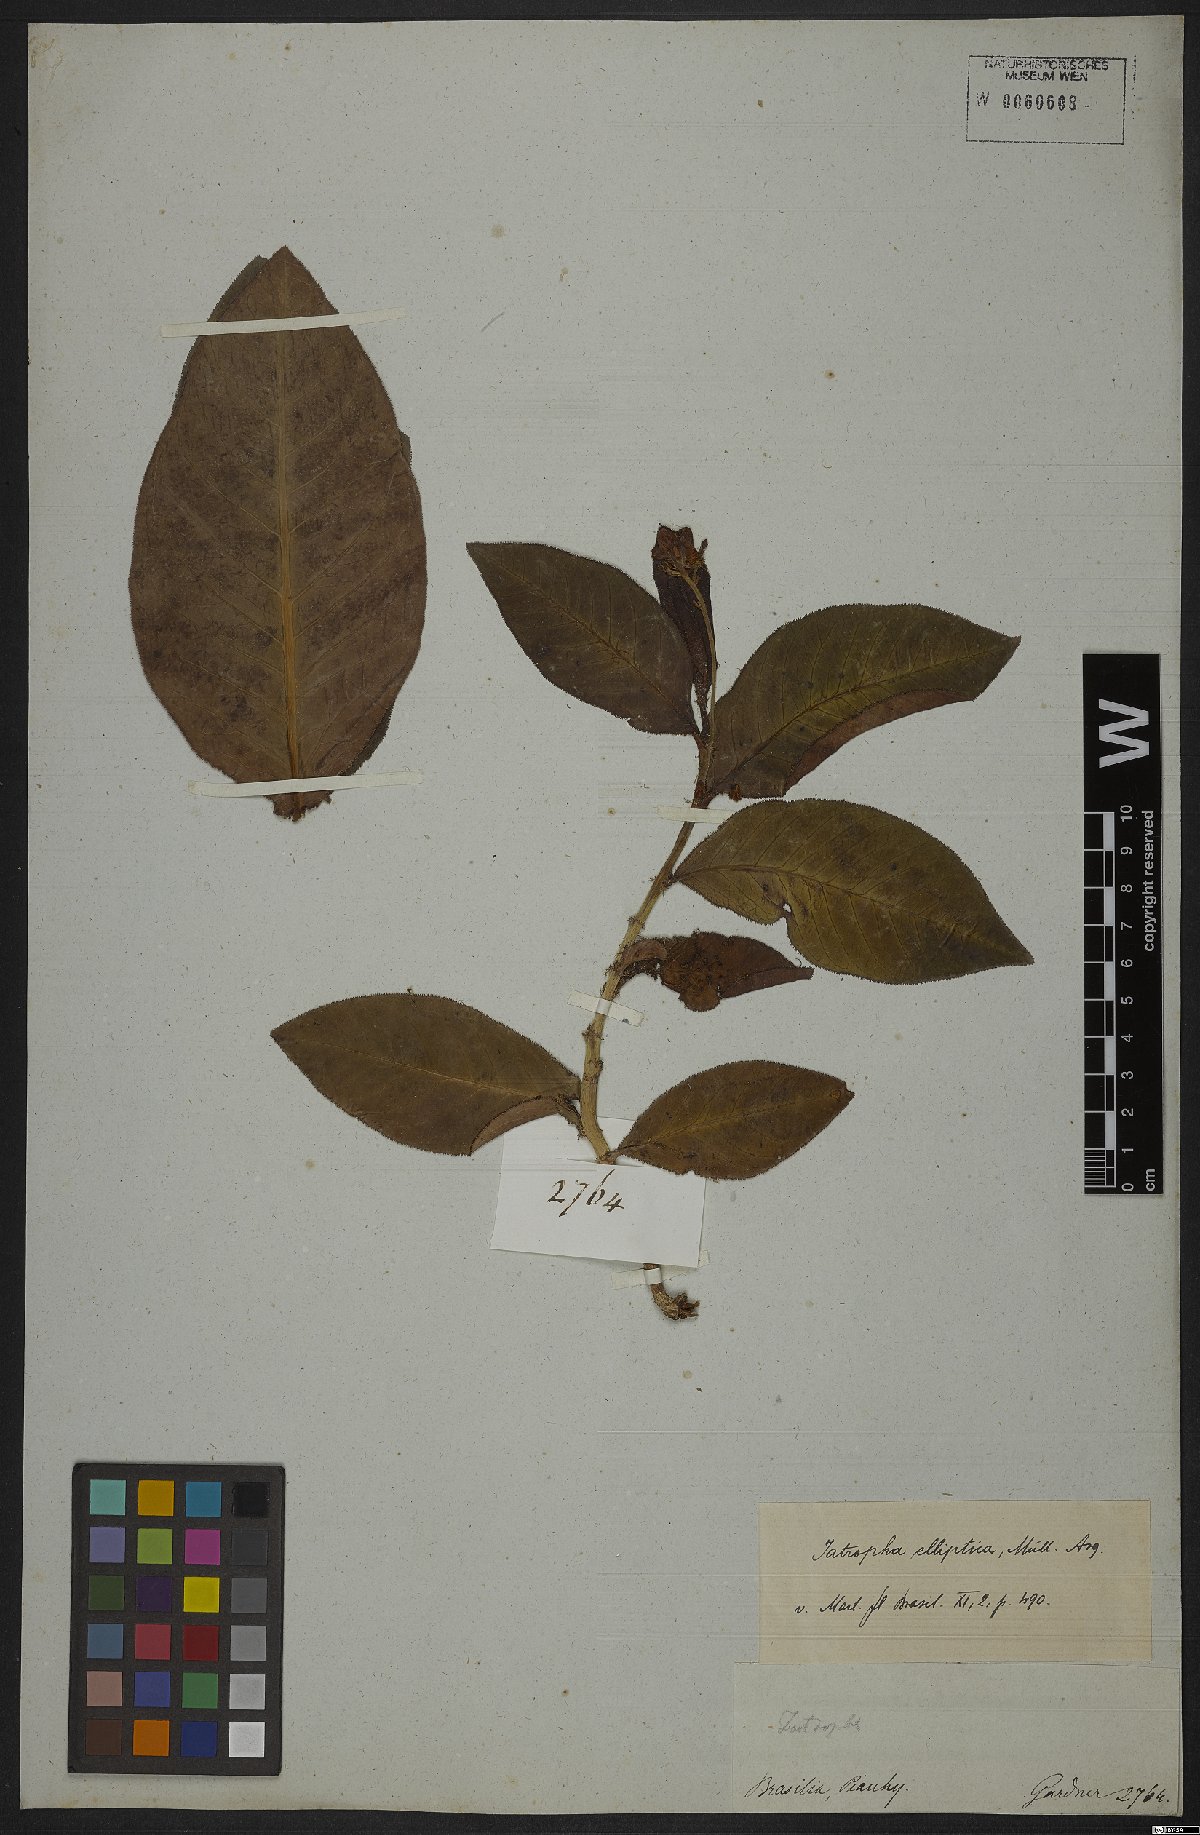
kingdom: Plantae
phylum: Tracheophyta
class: Magnoliopsida
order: Malpighiales
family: Euphorbiaceae
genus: Jatropha
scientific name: Jatropha elliptica
